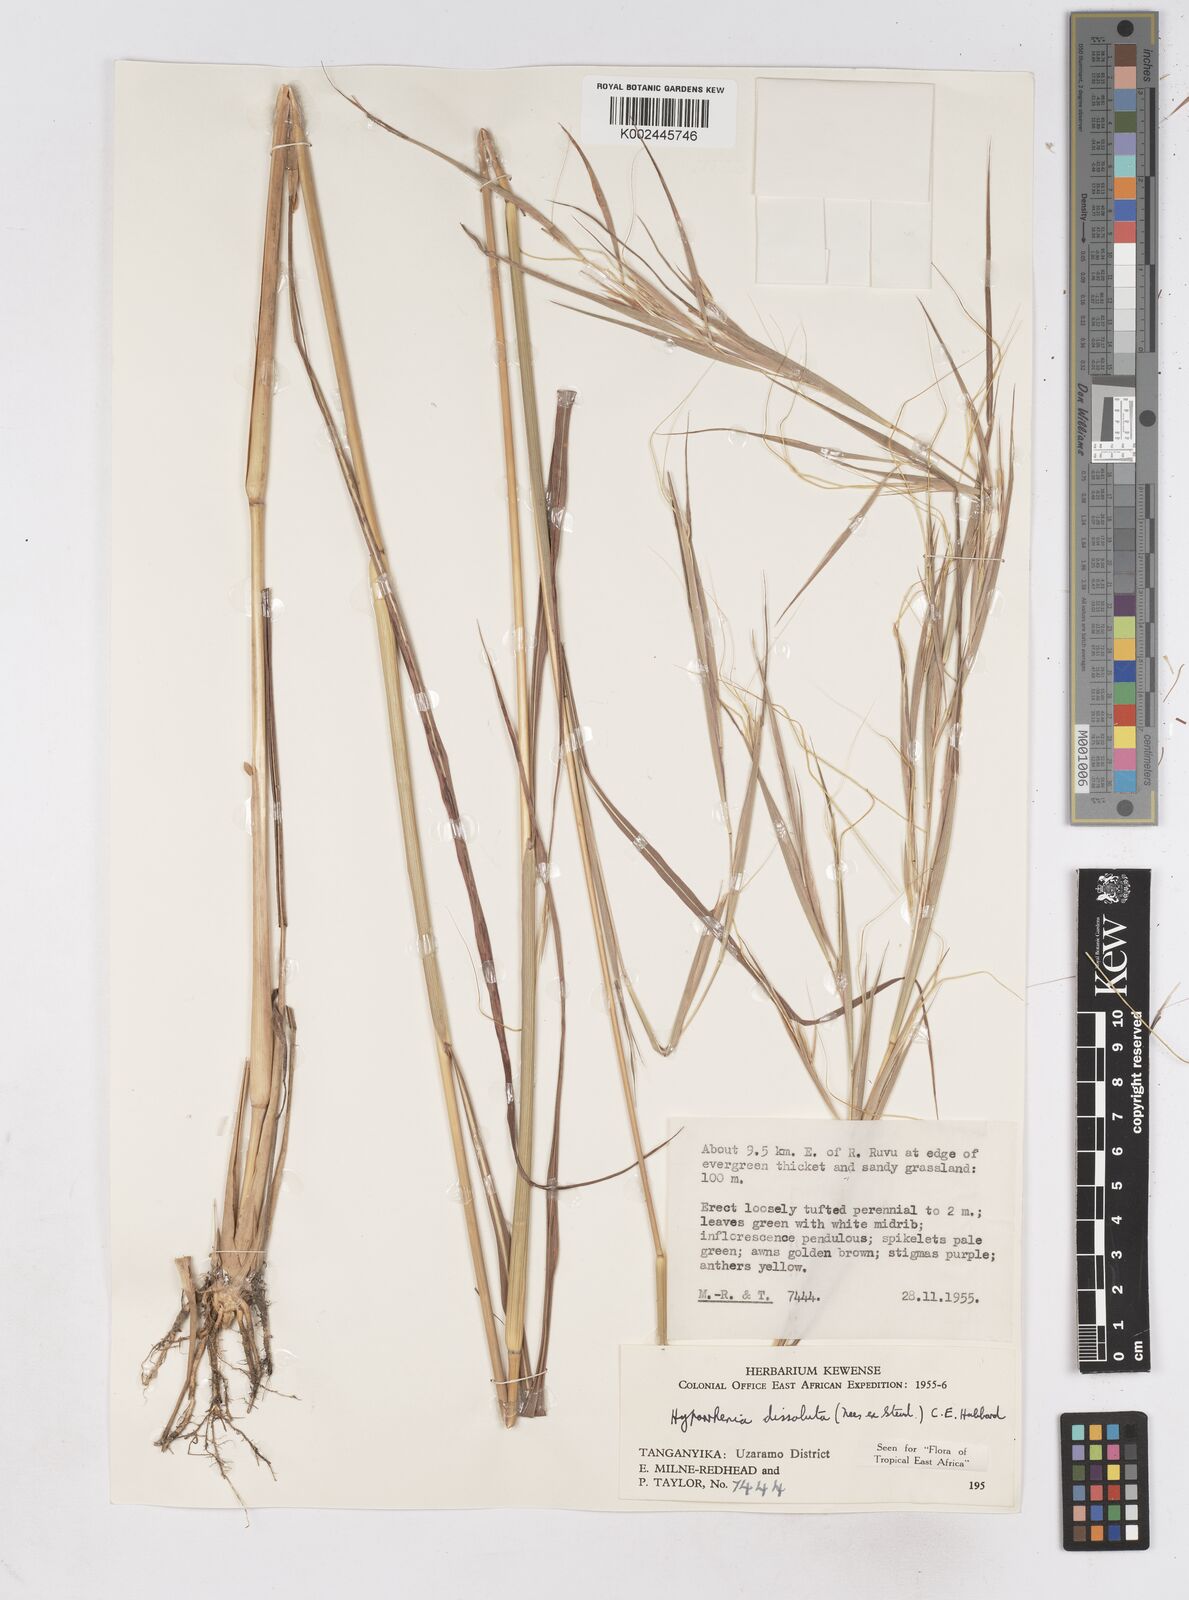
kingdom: Plantae
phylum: Tracheophyta
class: Liliopsida
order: Poales
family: Poaceae
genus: Hyperthelia
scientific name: Hyperthelia dissoluta
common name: Yellow thatching grass
